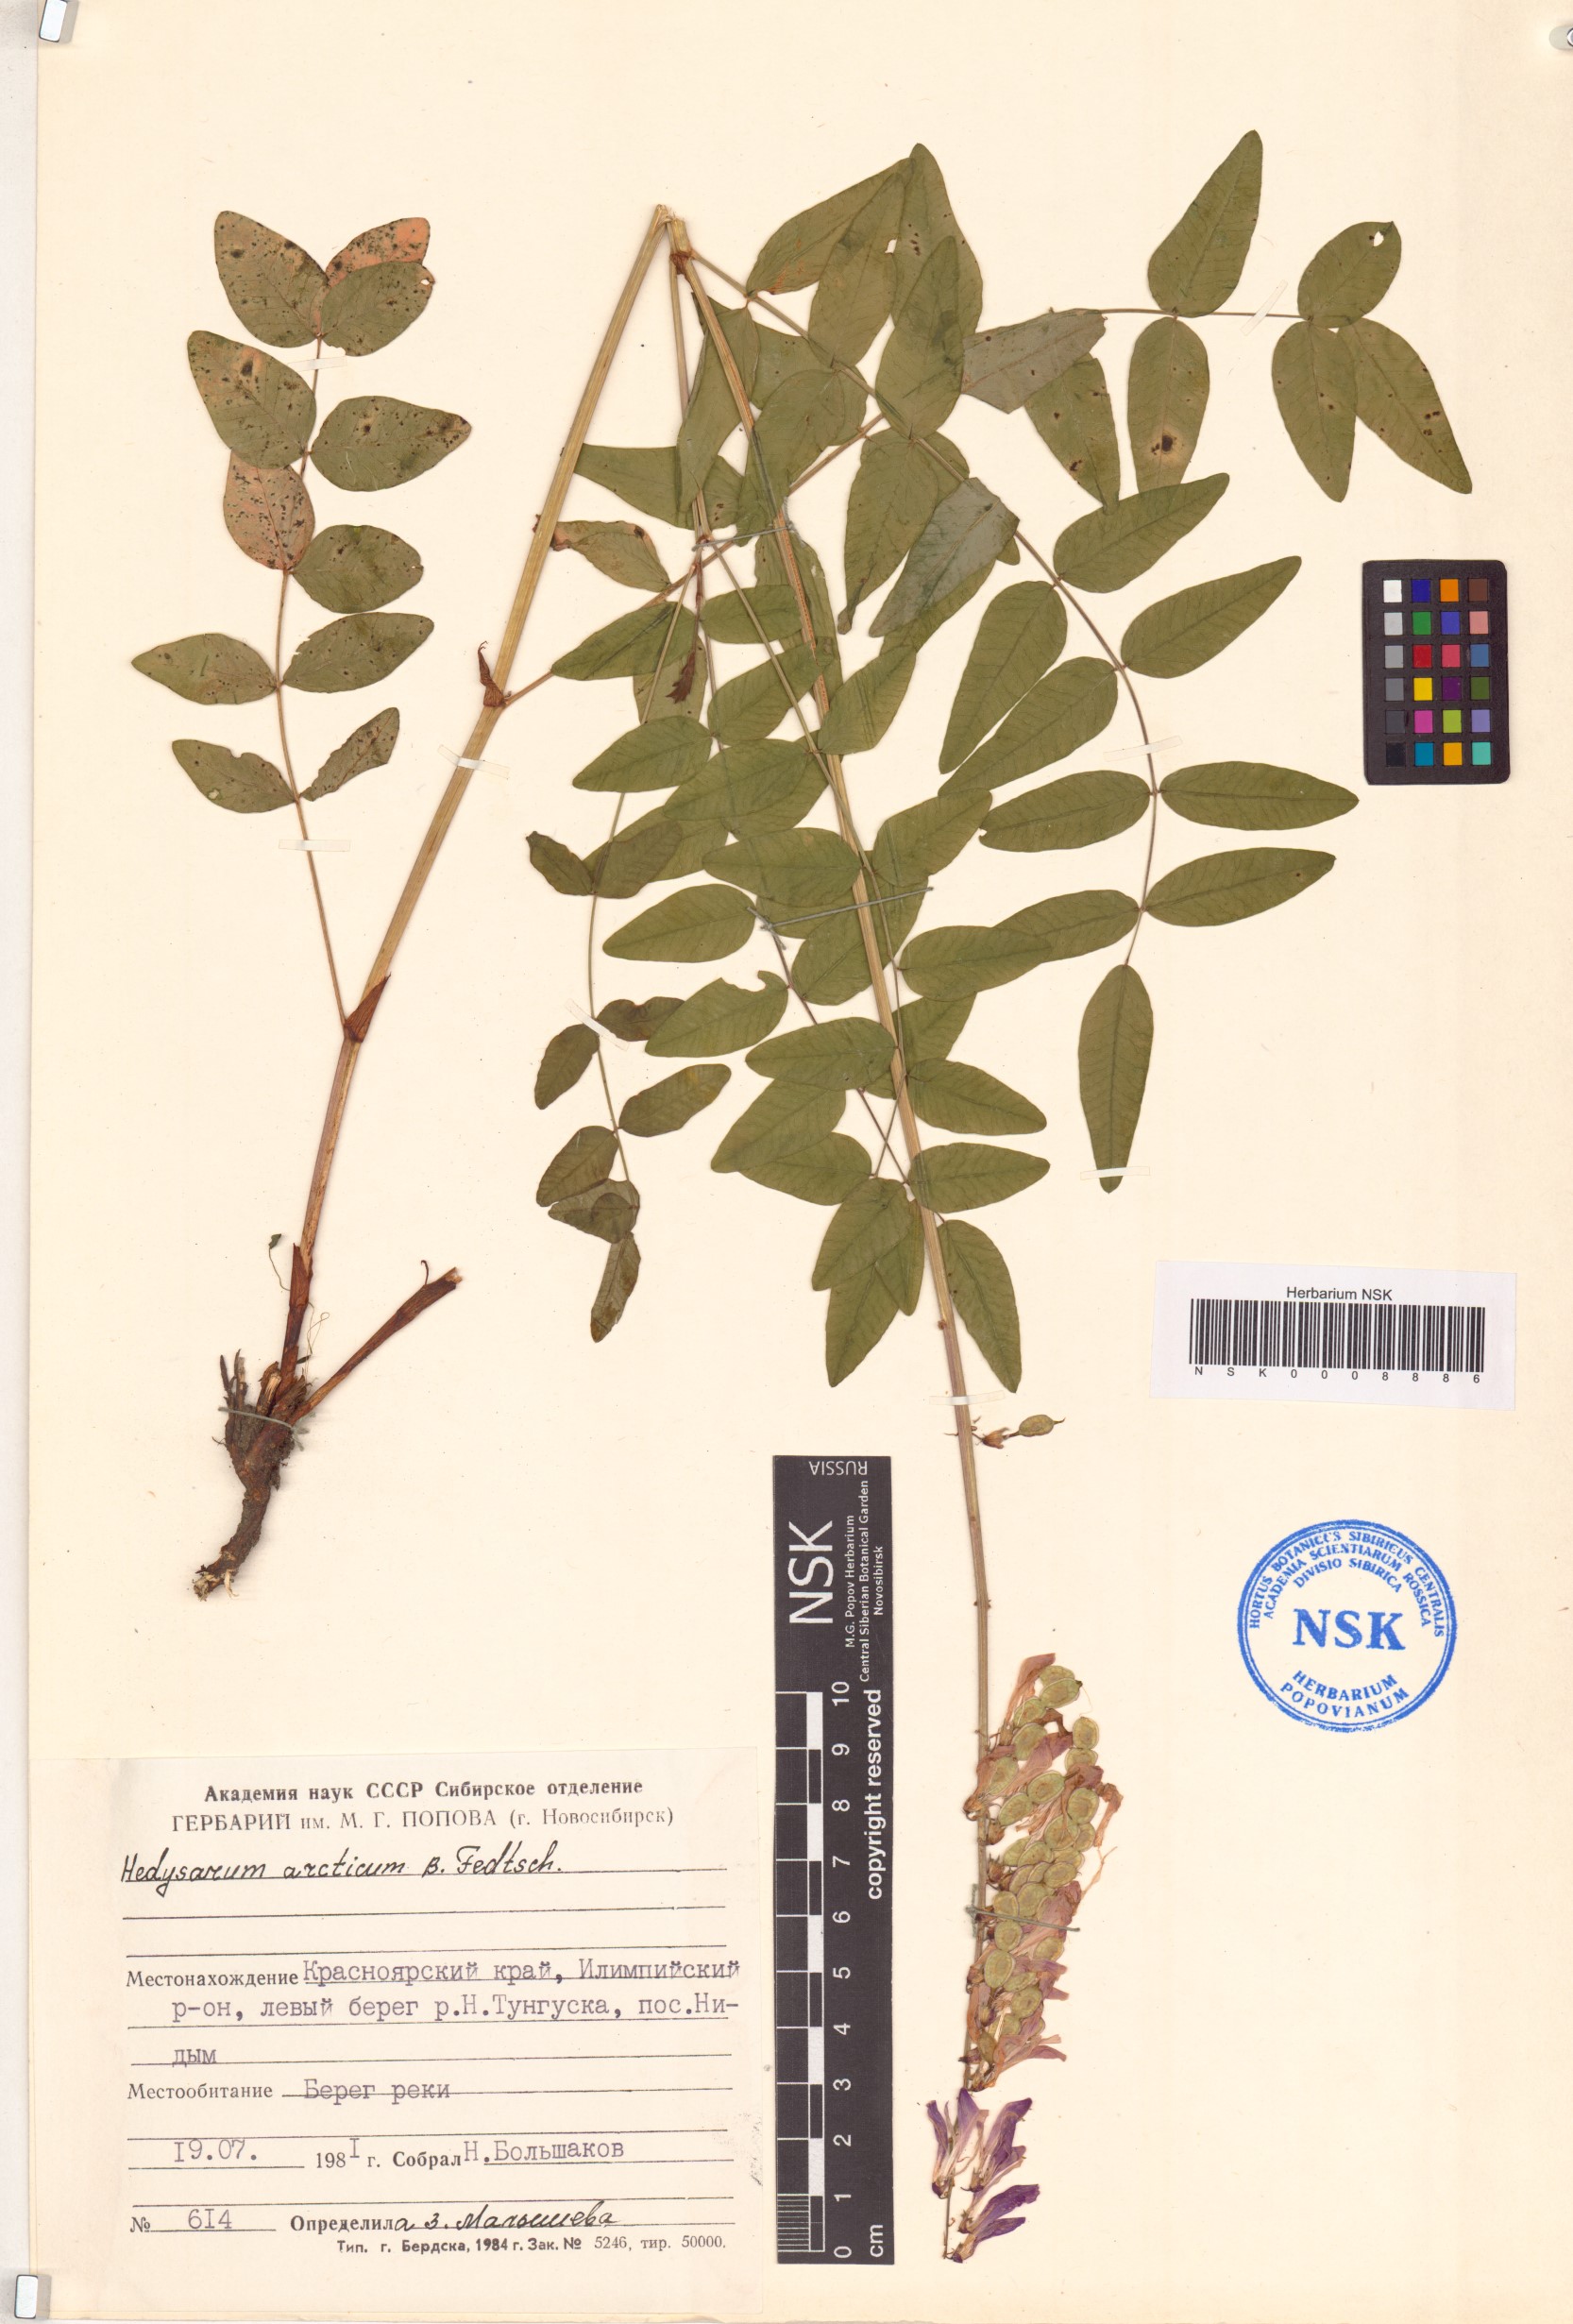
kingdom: Plantae
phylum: Tracheophyta
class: Magnoliopsida
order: Fabales
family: Fabaceae
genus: Hedysarum
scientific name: Hedysarum hedysaroides
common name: Alpine french-honeysuckle
